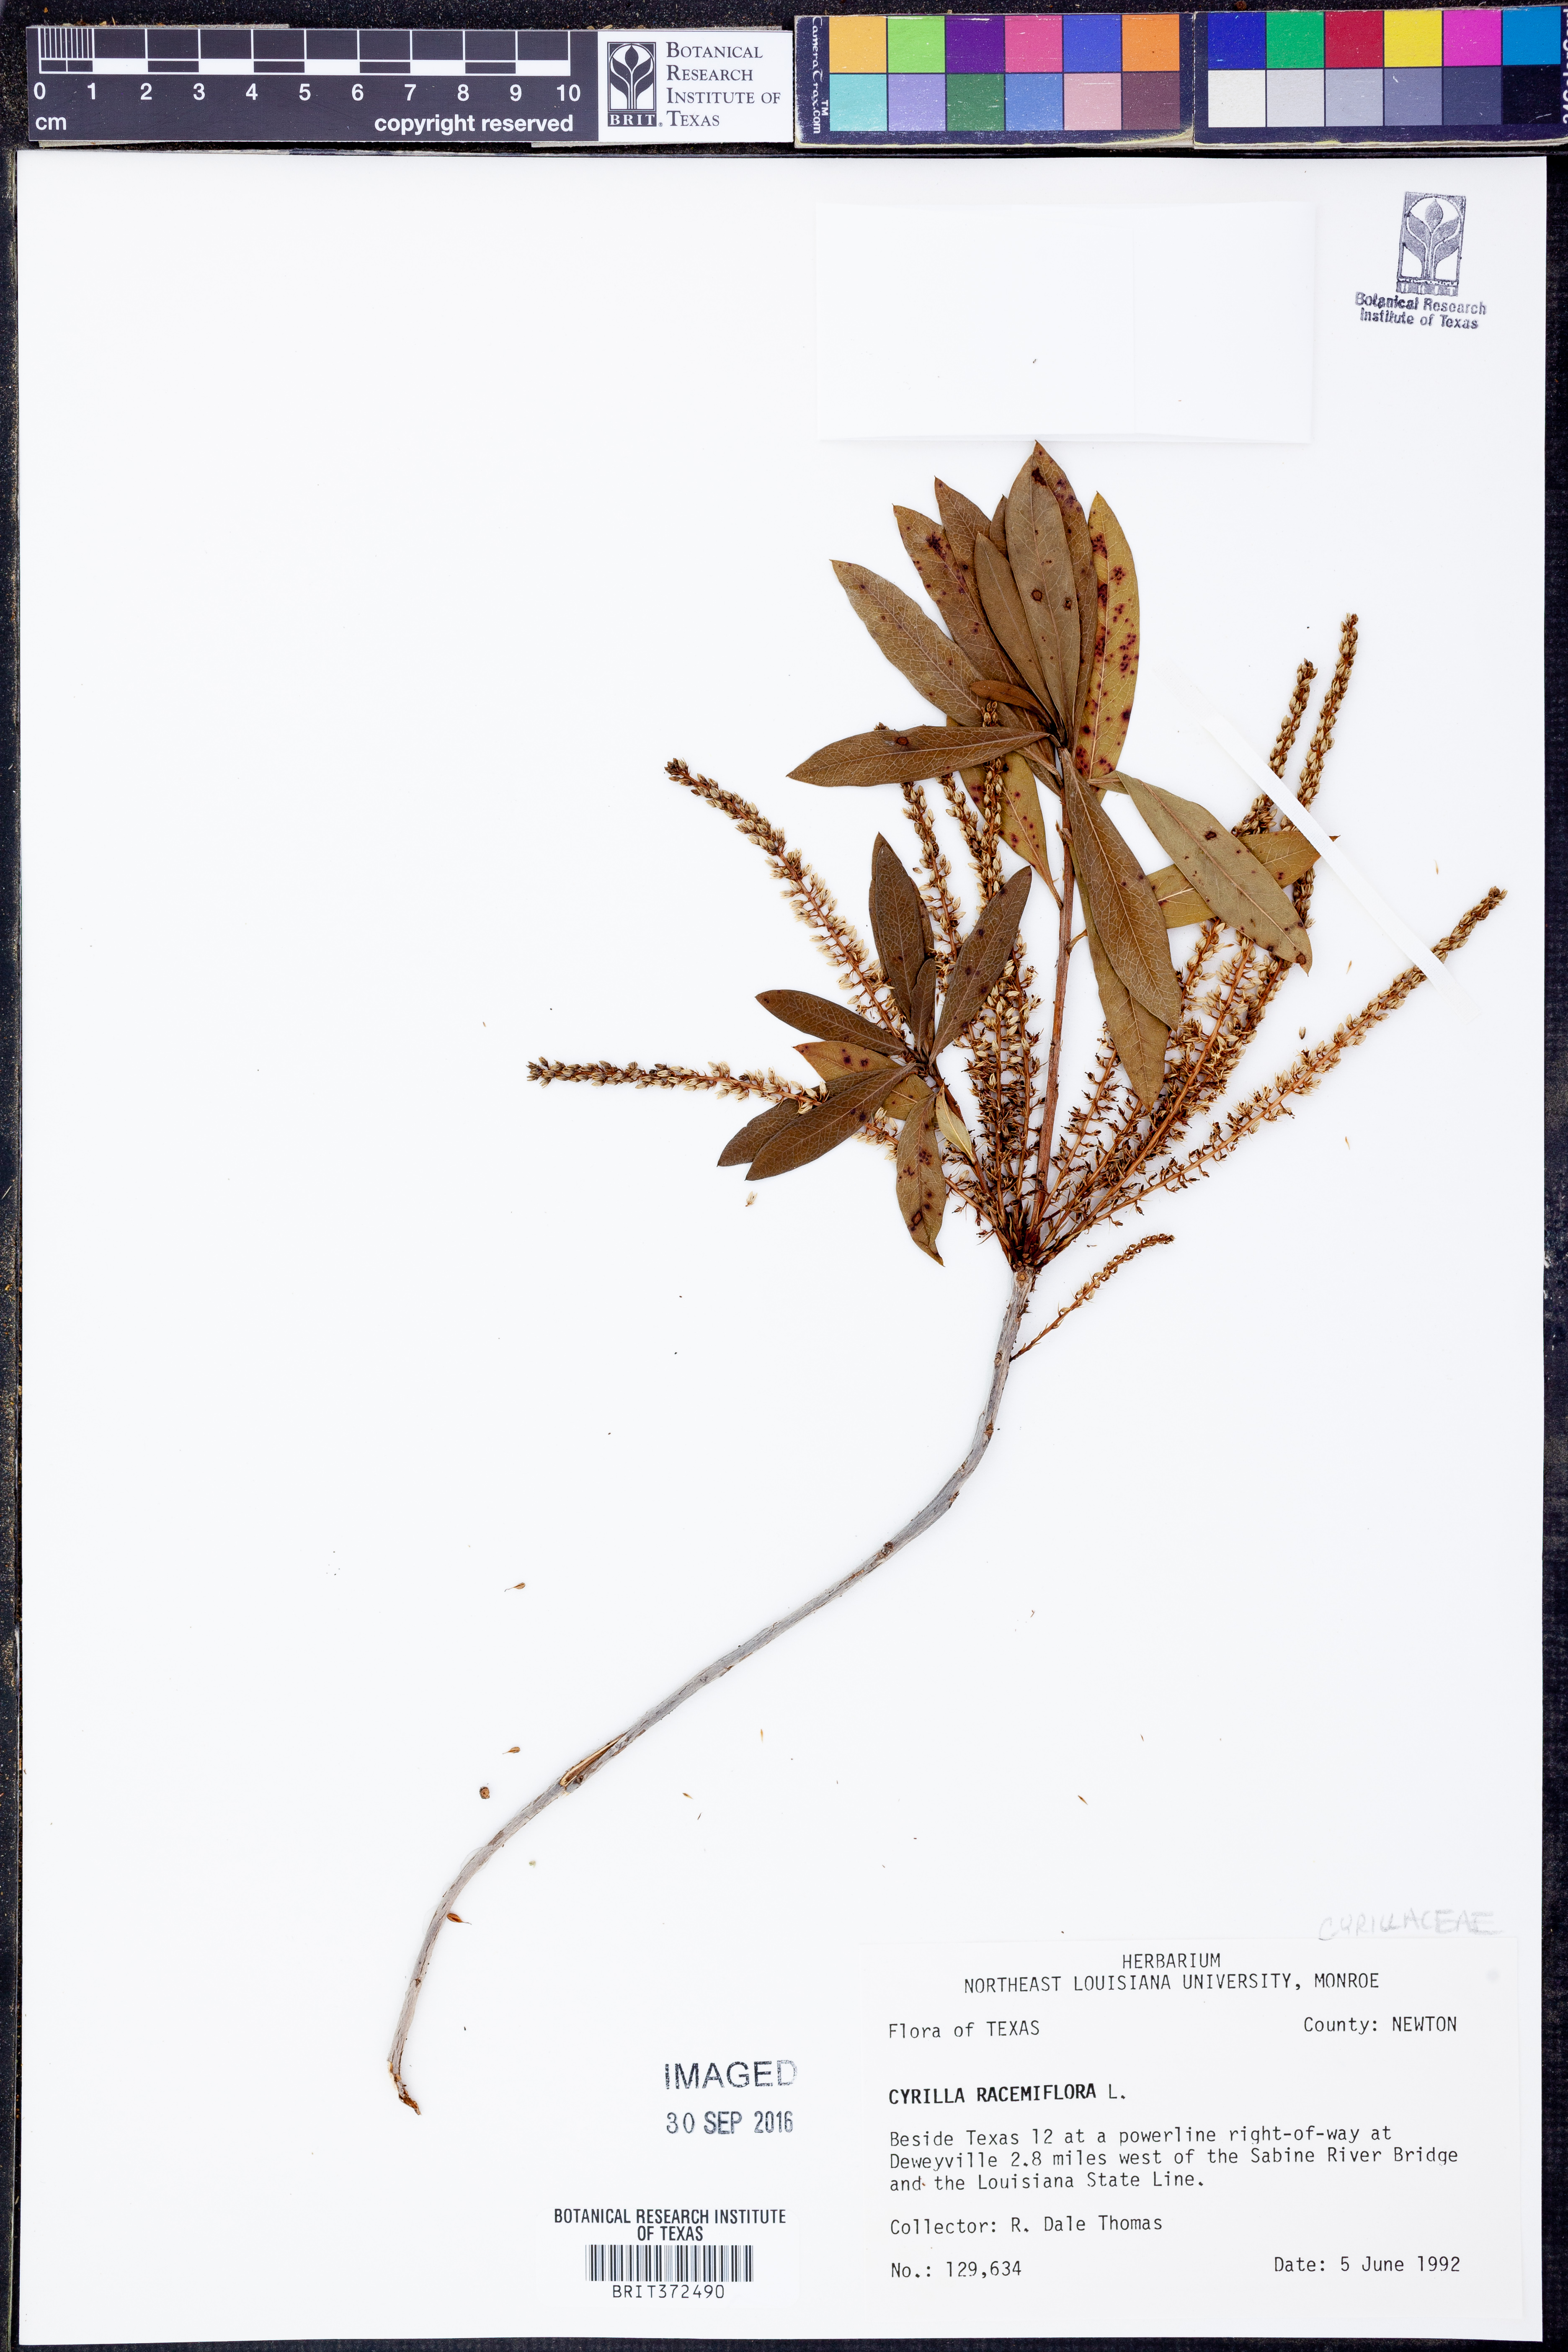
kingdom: Plantae
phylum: Tracheophyta
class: Magnoliopsida
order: Ericales
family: Cyrillaceae
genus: Cyrilla
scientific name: Cyrilla racemiflora
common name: Black titi
